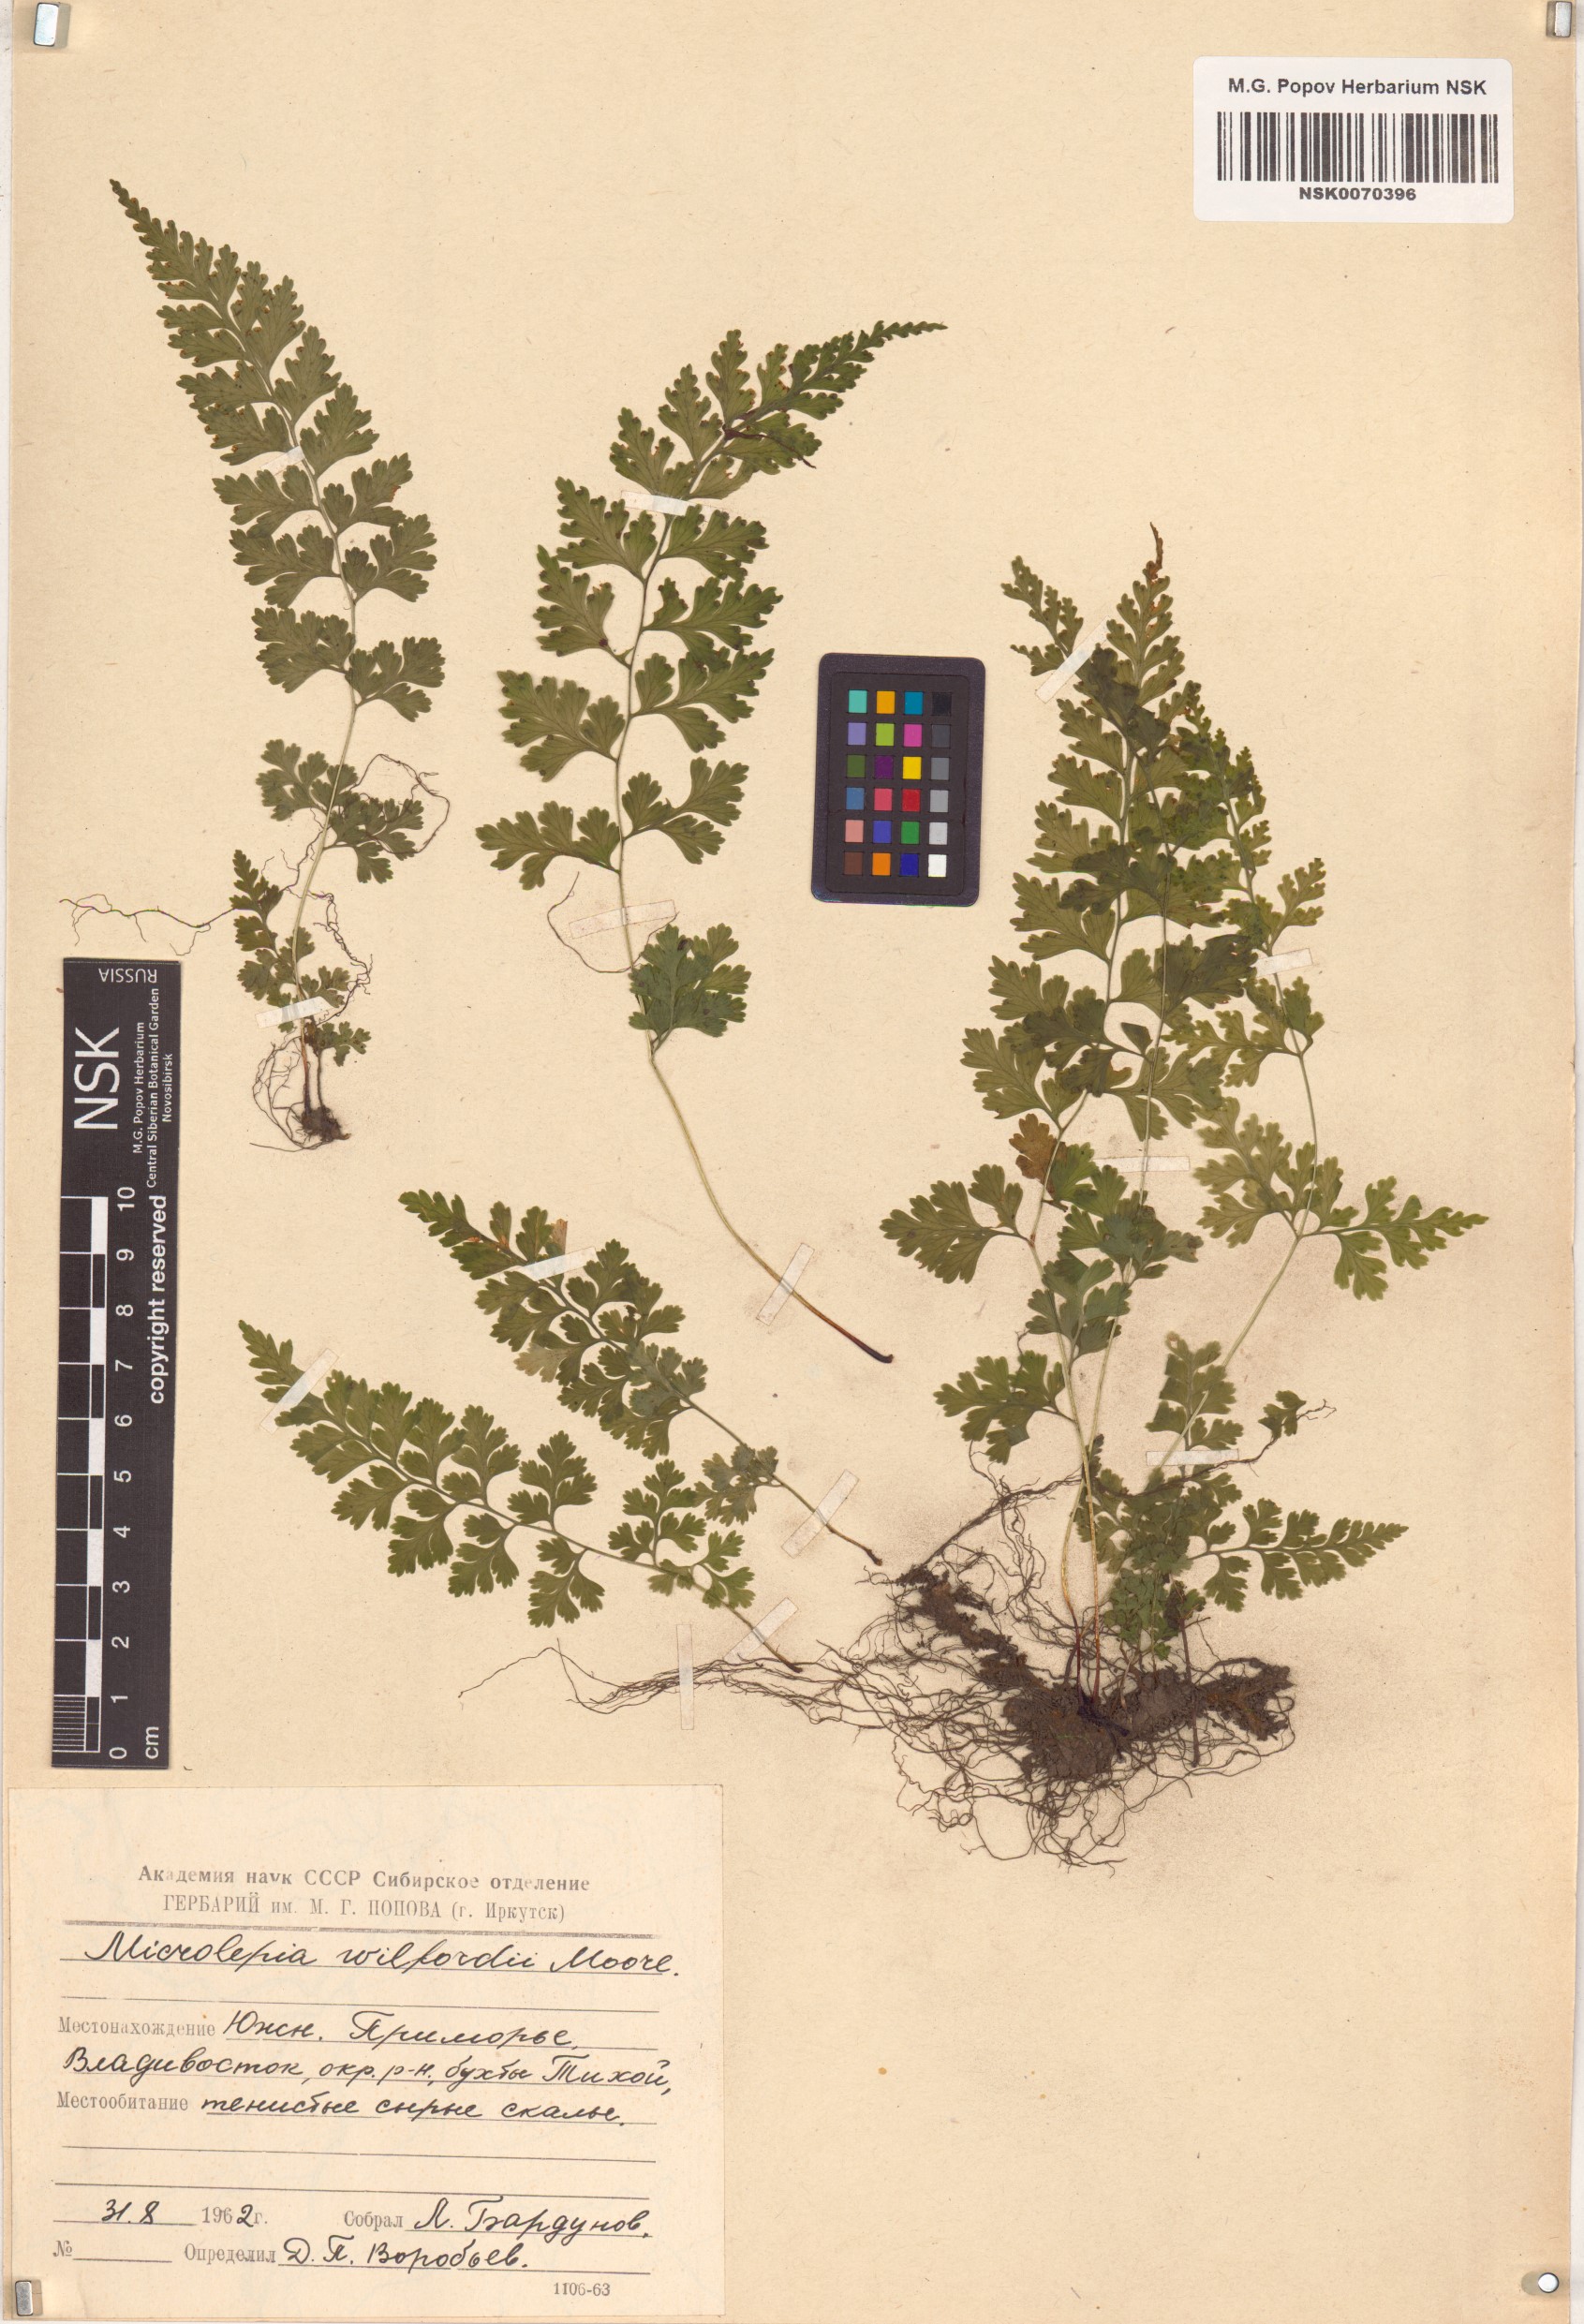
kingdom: Plantae
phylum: Tracheophyta
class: Polypodiopsida
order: Polypodiales
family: Dennstaedtiaceae
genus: Sitobolium
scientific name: Sitobolium wilfordii
